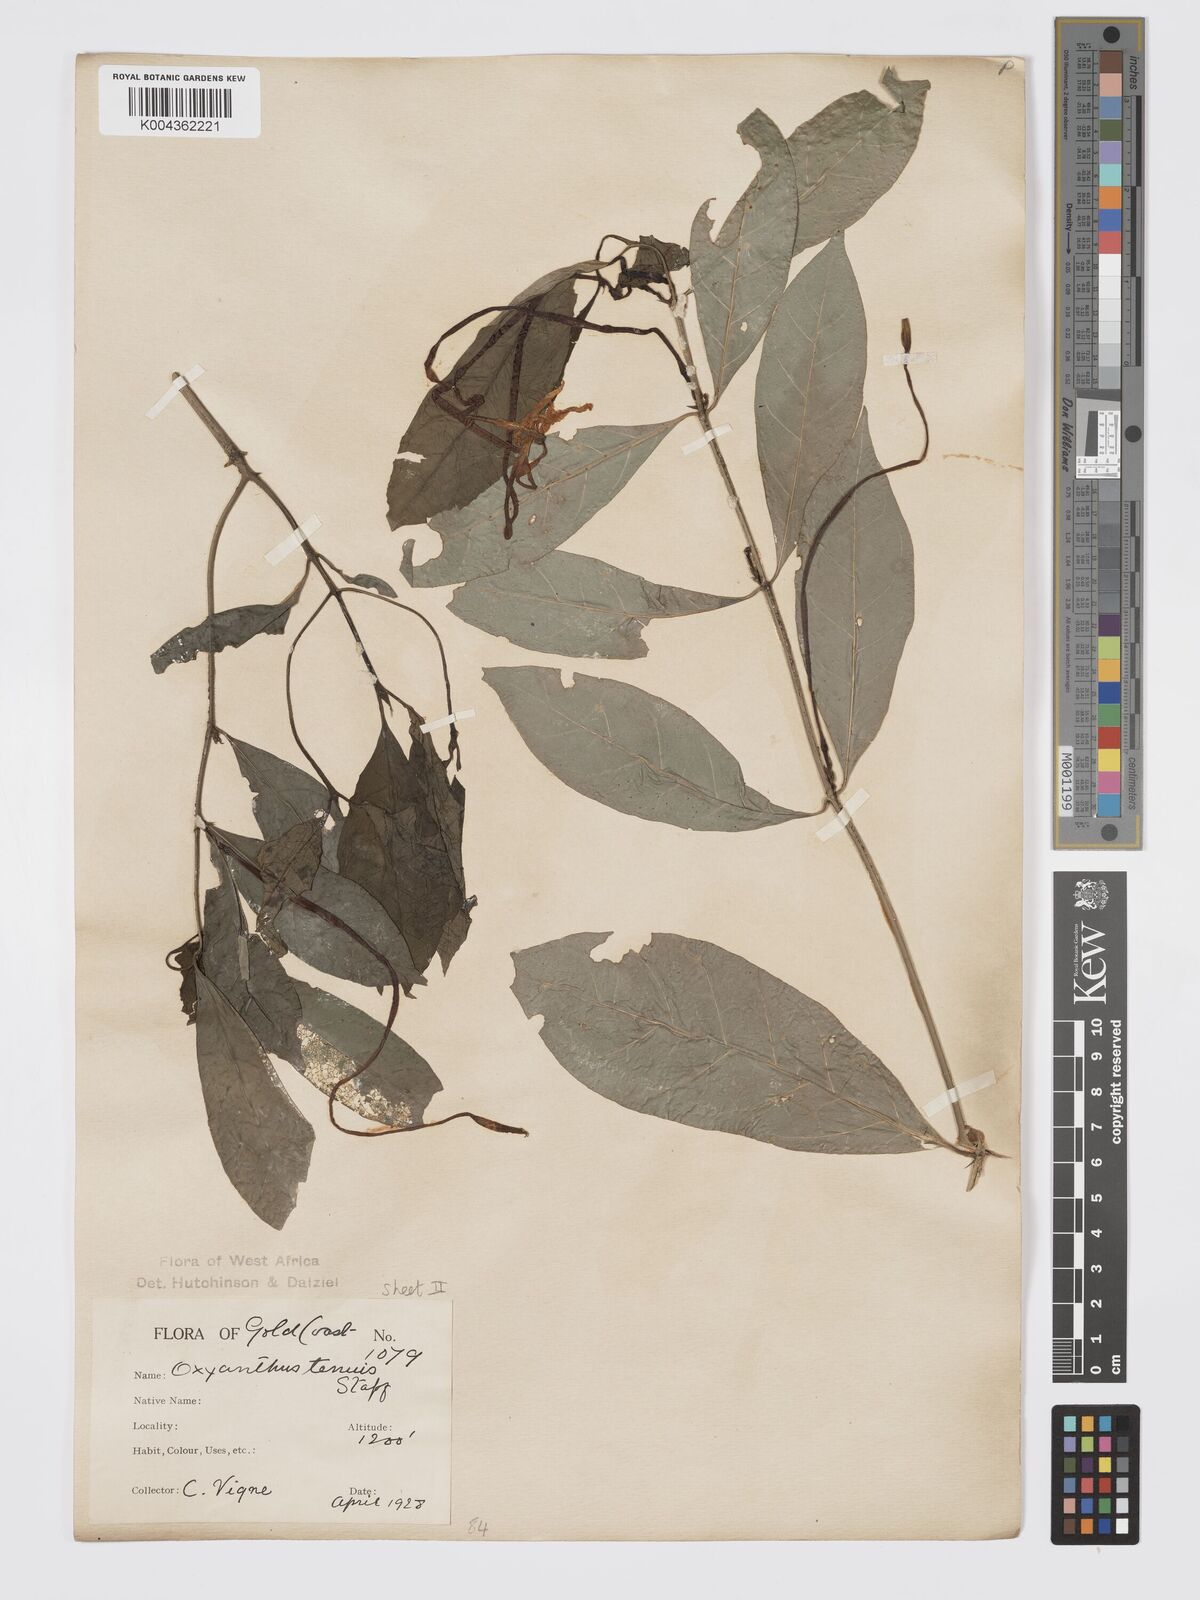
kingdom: Plantae
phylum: Tracheophyta
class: Magnoliopsida
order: Gentianales
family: Rubiaceae
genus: Oxyanthus
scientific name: Oxyanthus subpunctatus
